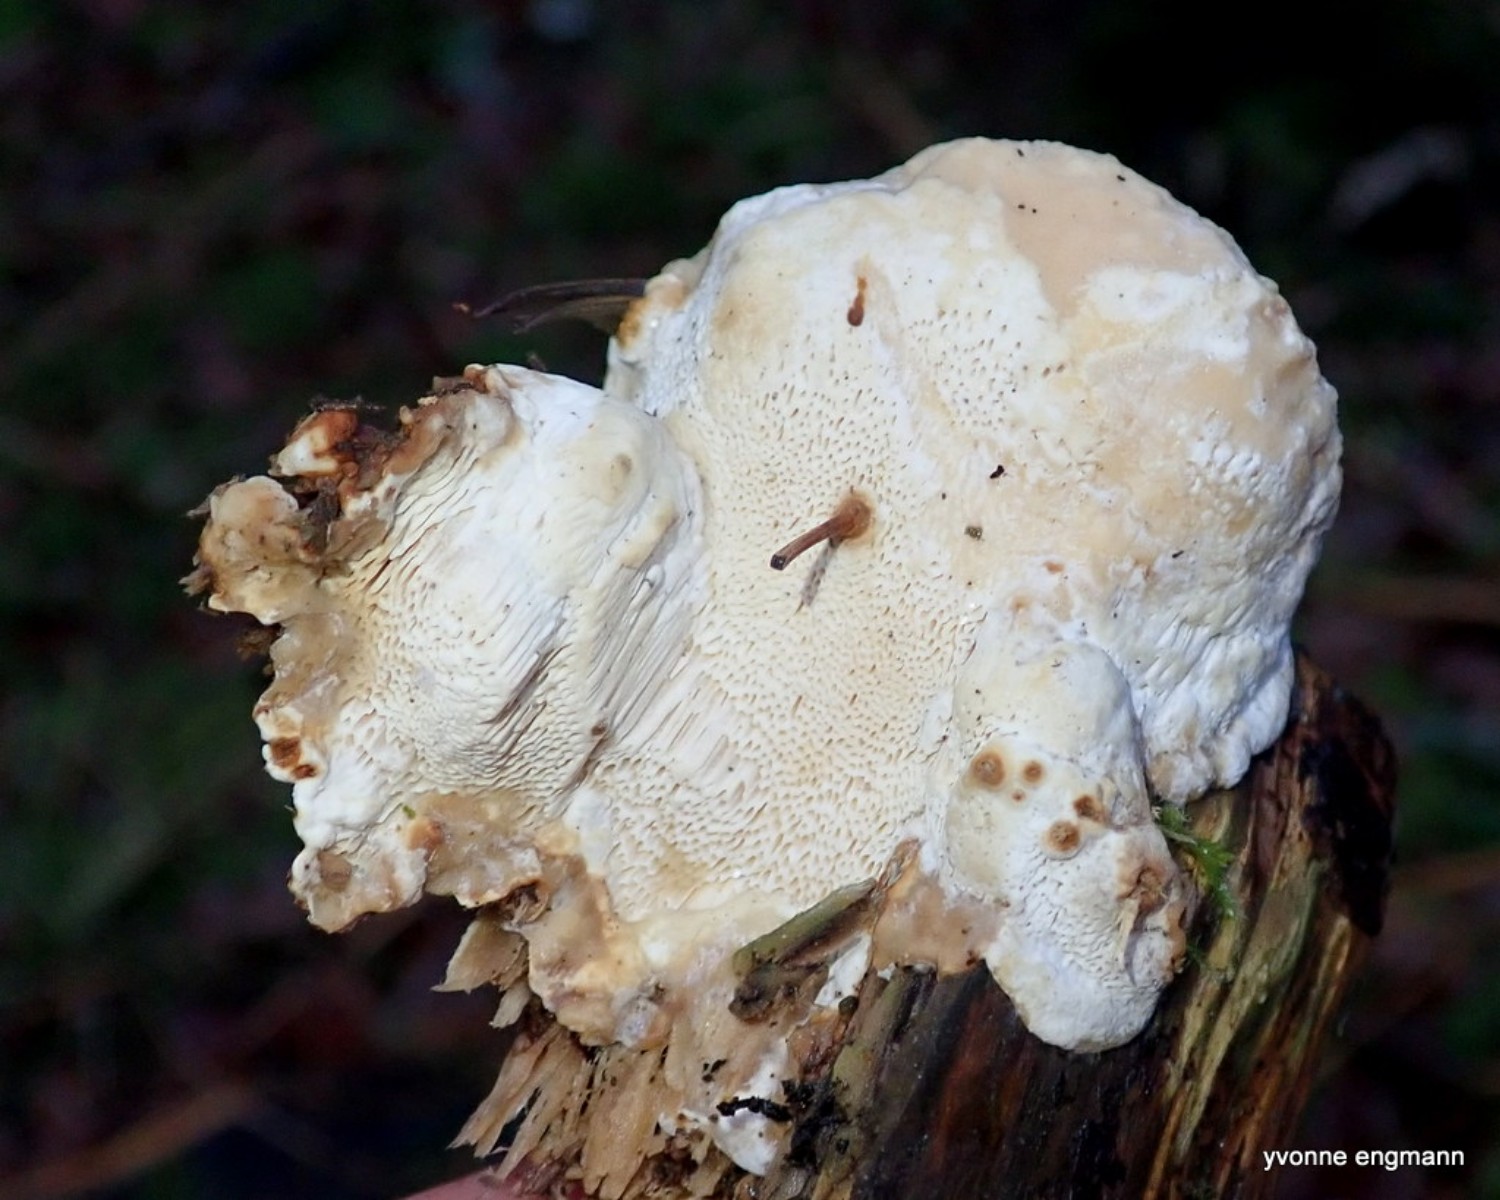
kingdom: Fungi
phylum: Basidiomycota
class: Agaricomycetes
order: Russulales
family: Bondarzewiaceae
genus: Heterobasidion
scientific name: Heterobasidion annosum
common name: almindelig rodfordærver
